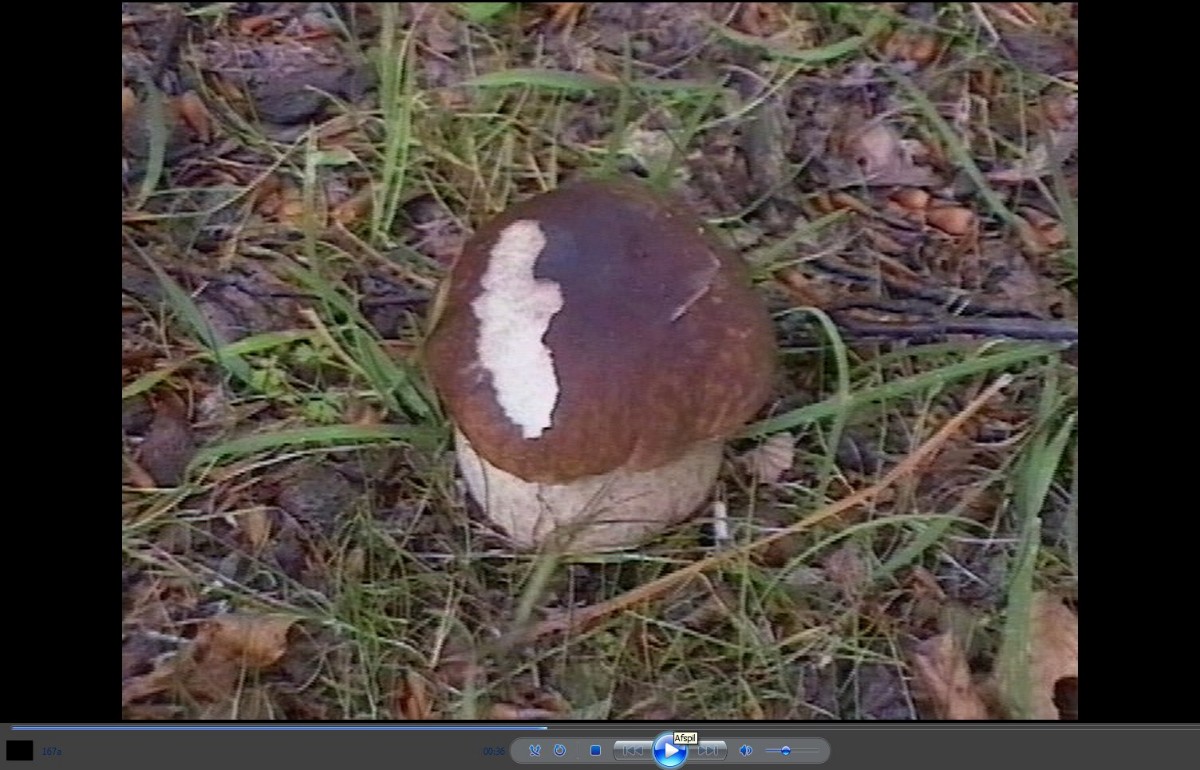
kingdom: Fungi
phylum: Basidiomycota
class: Agaricomycetes
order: Boletales
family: Boletaceae
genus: Boletus
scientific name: Boletus edulis
